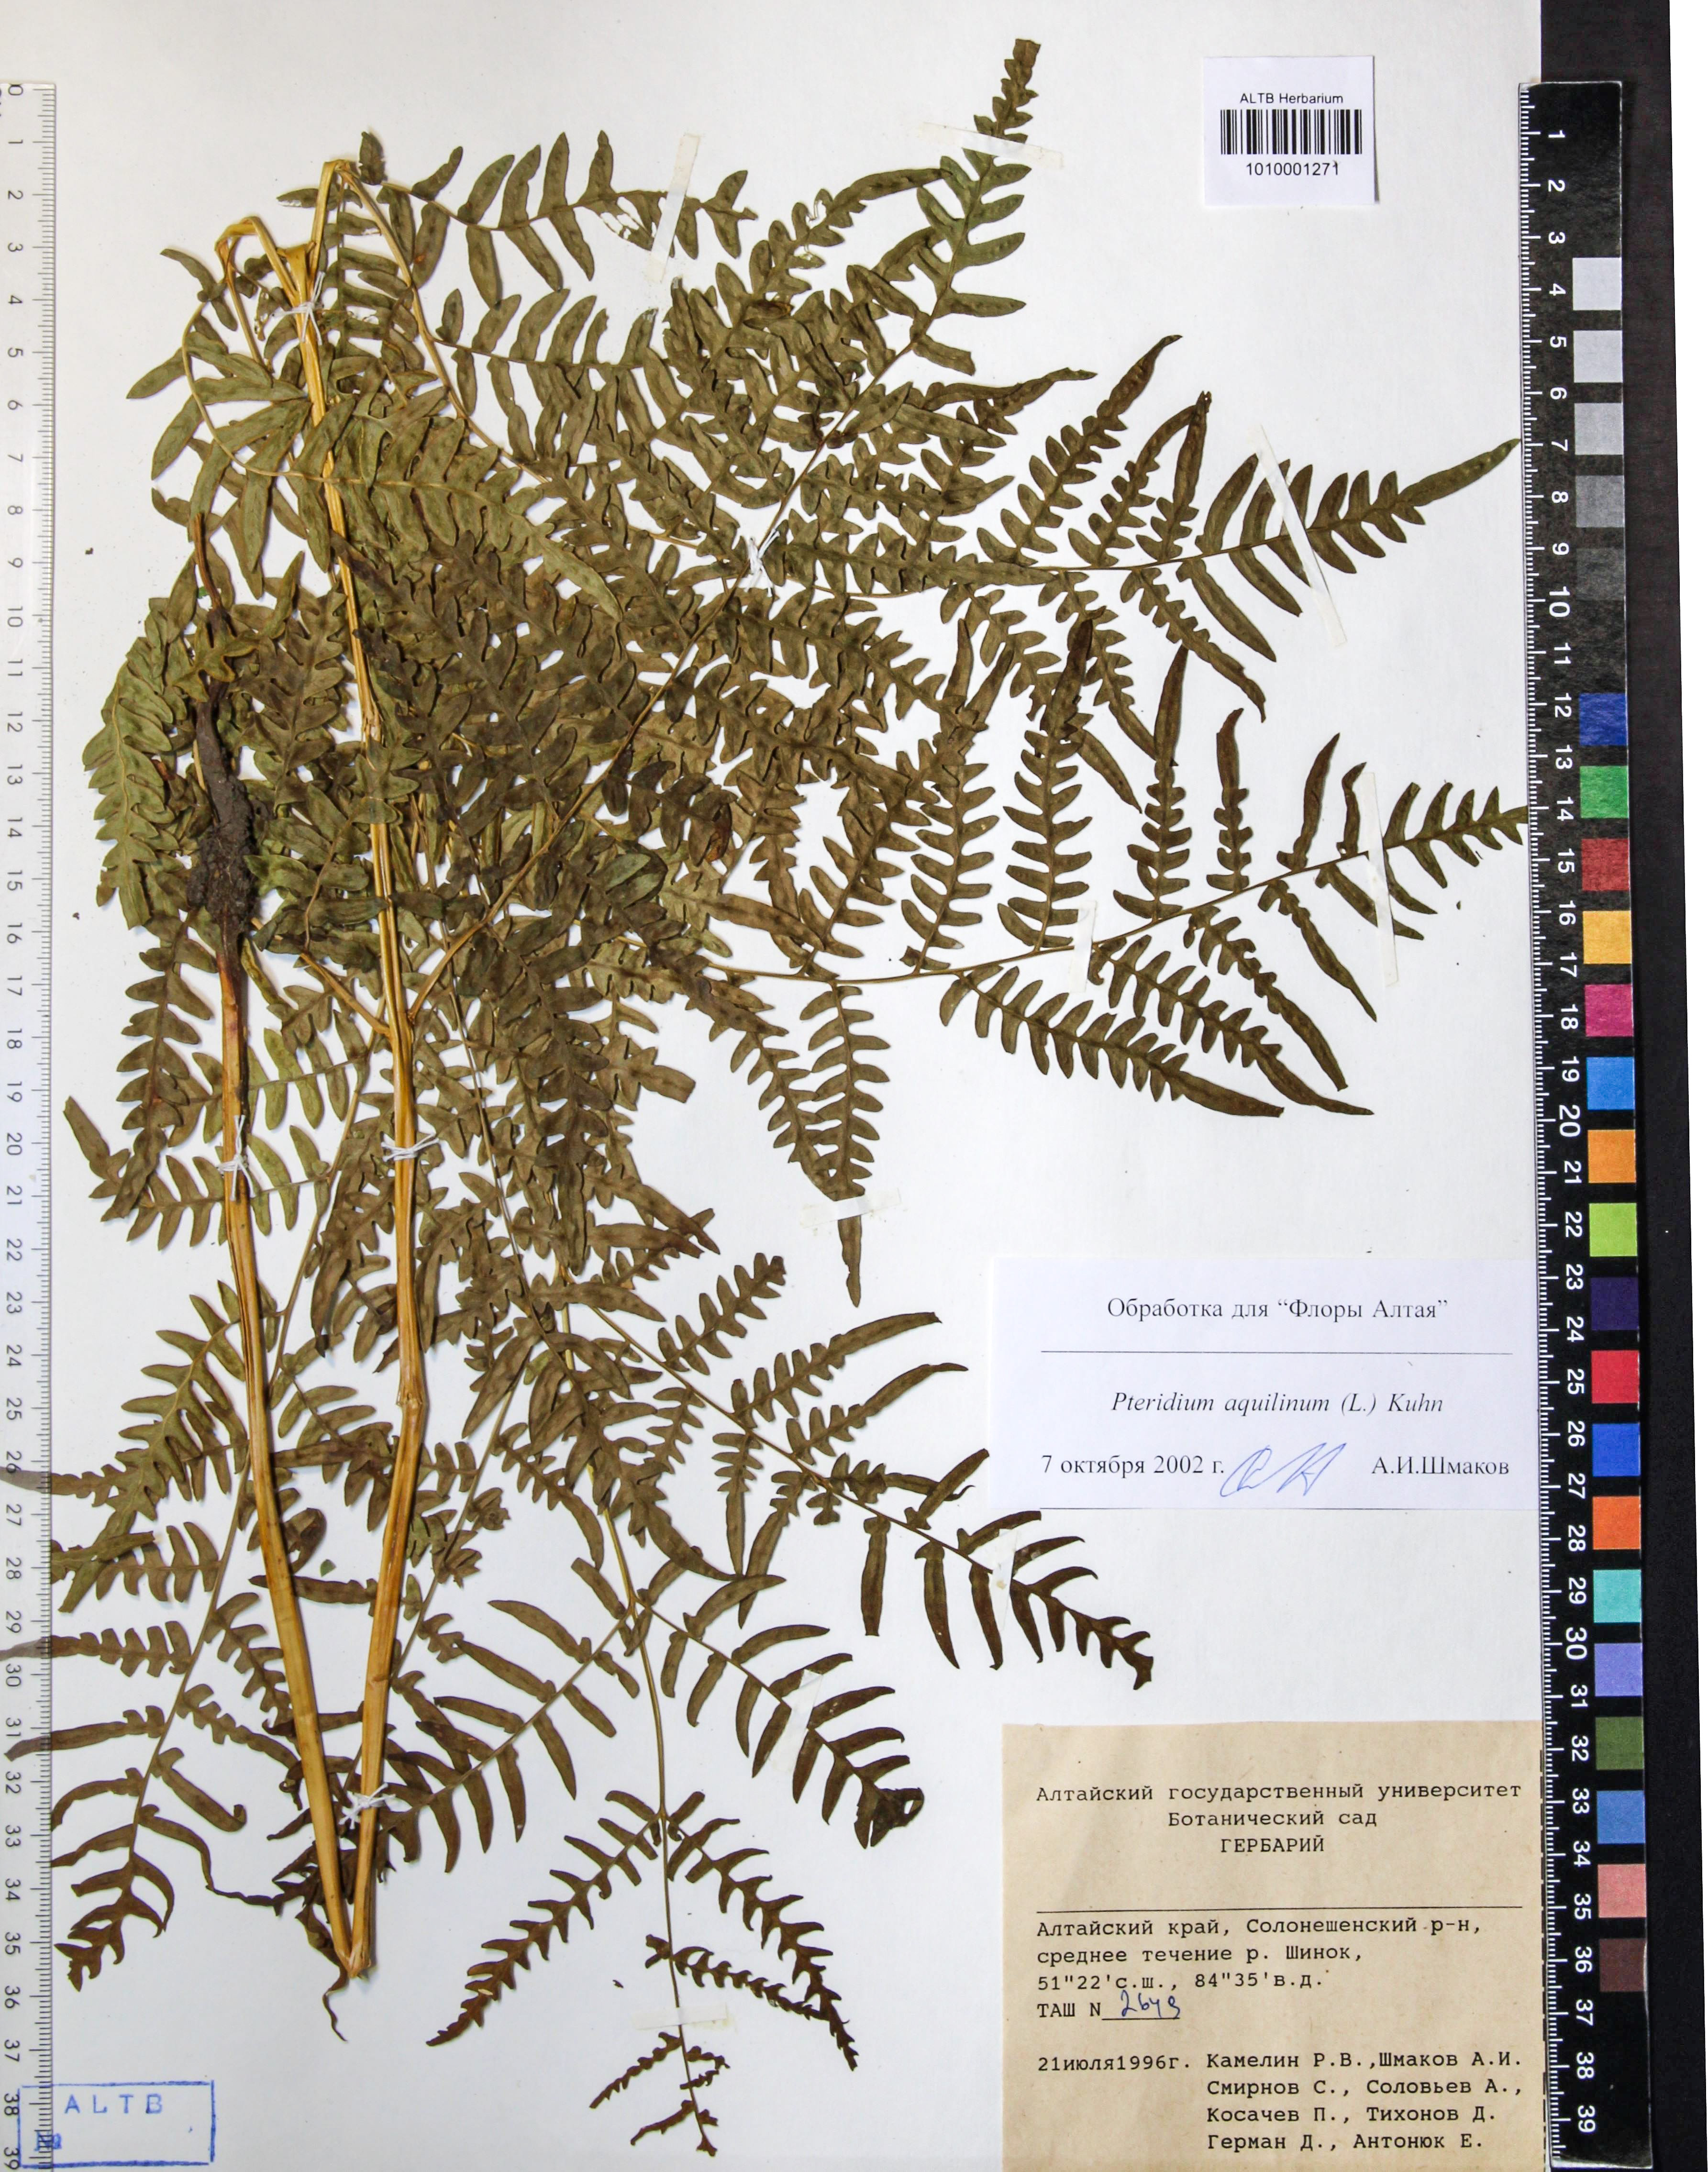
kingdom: Plantae
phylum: Tracheophyta
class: Polypodiopsida
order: Polypodiales
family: Dennstaedtiaceae
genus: Pteridium
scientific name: Pteridium aquilinum
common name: Bracken
